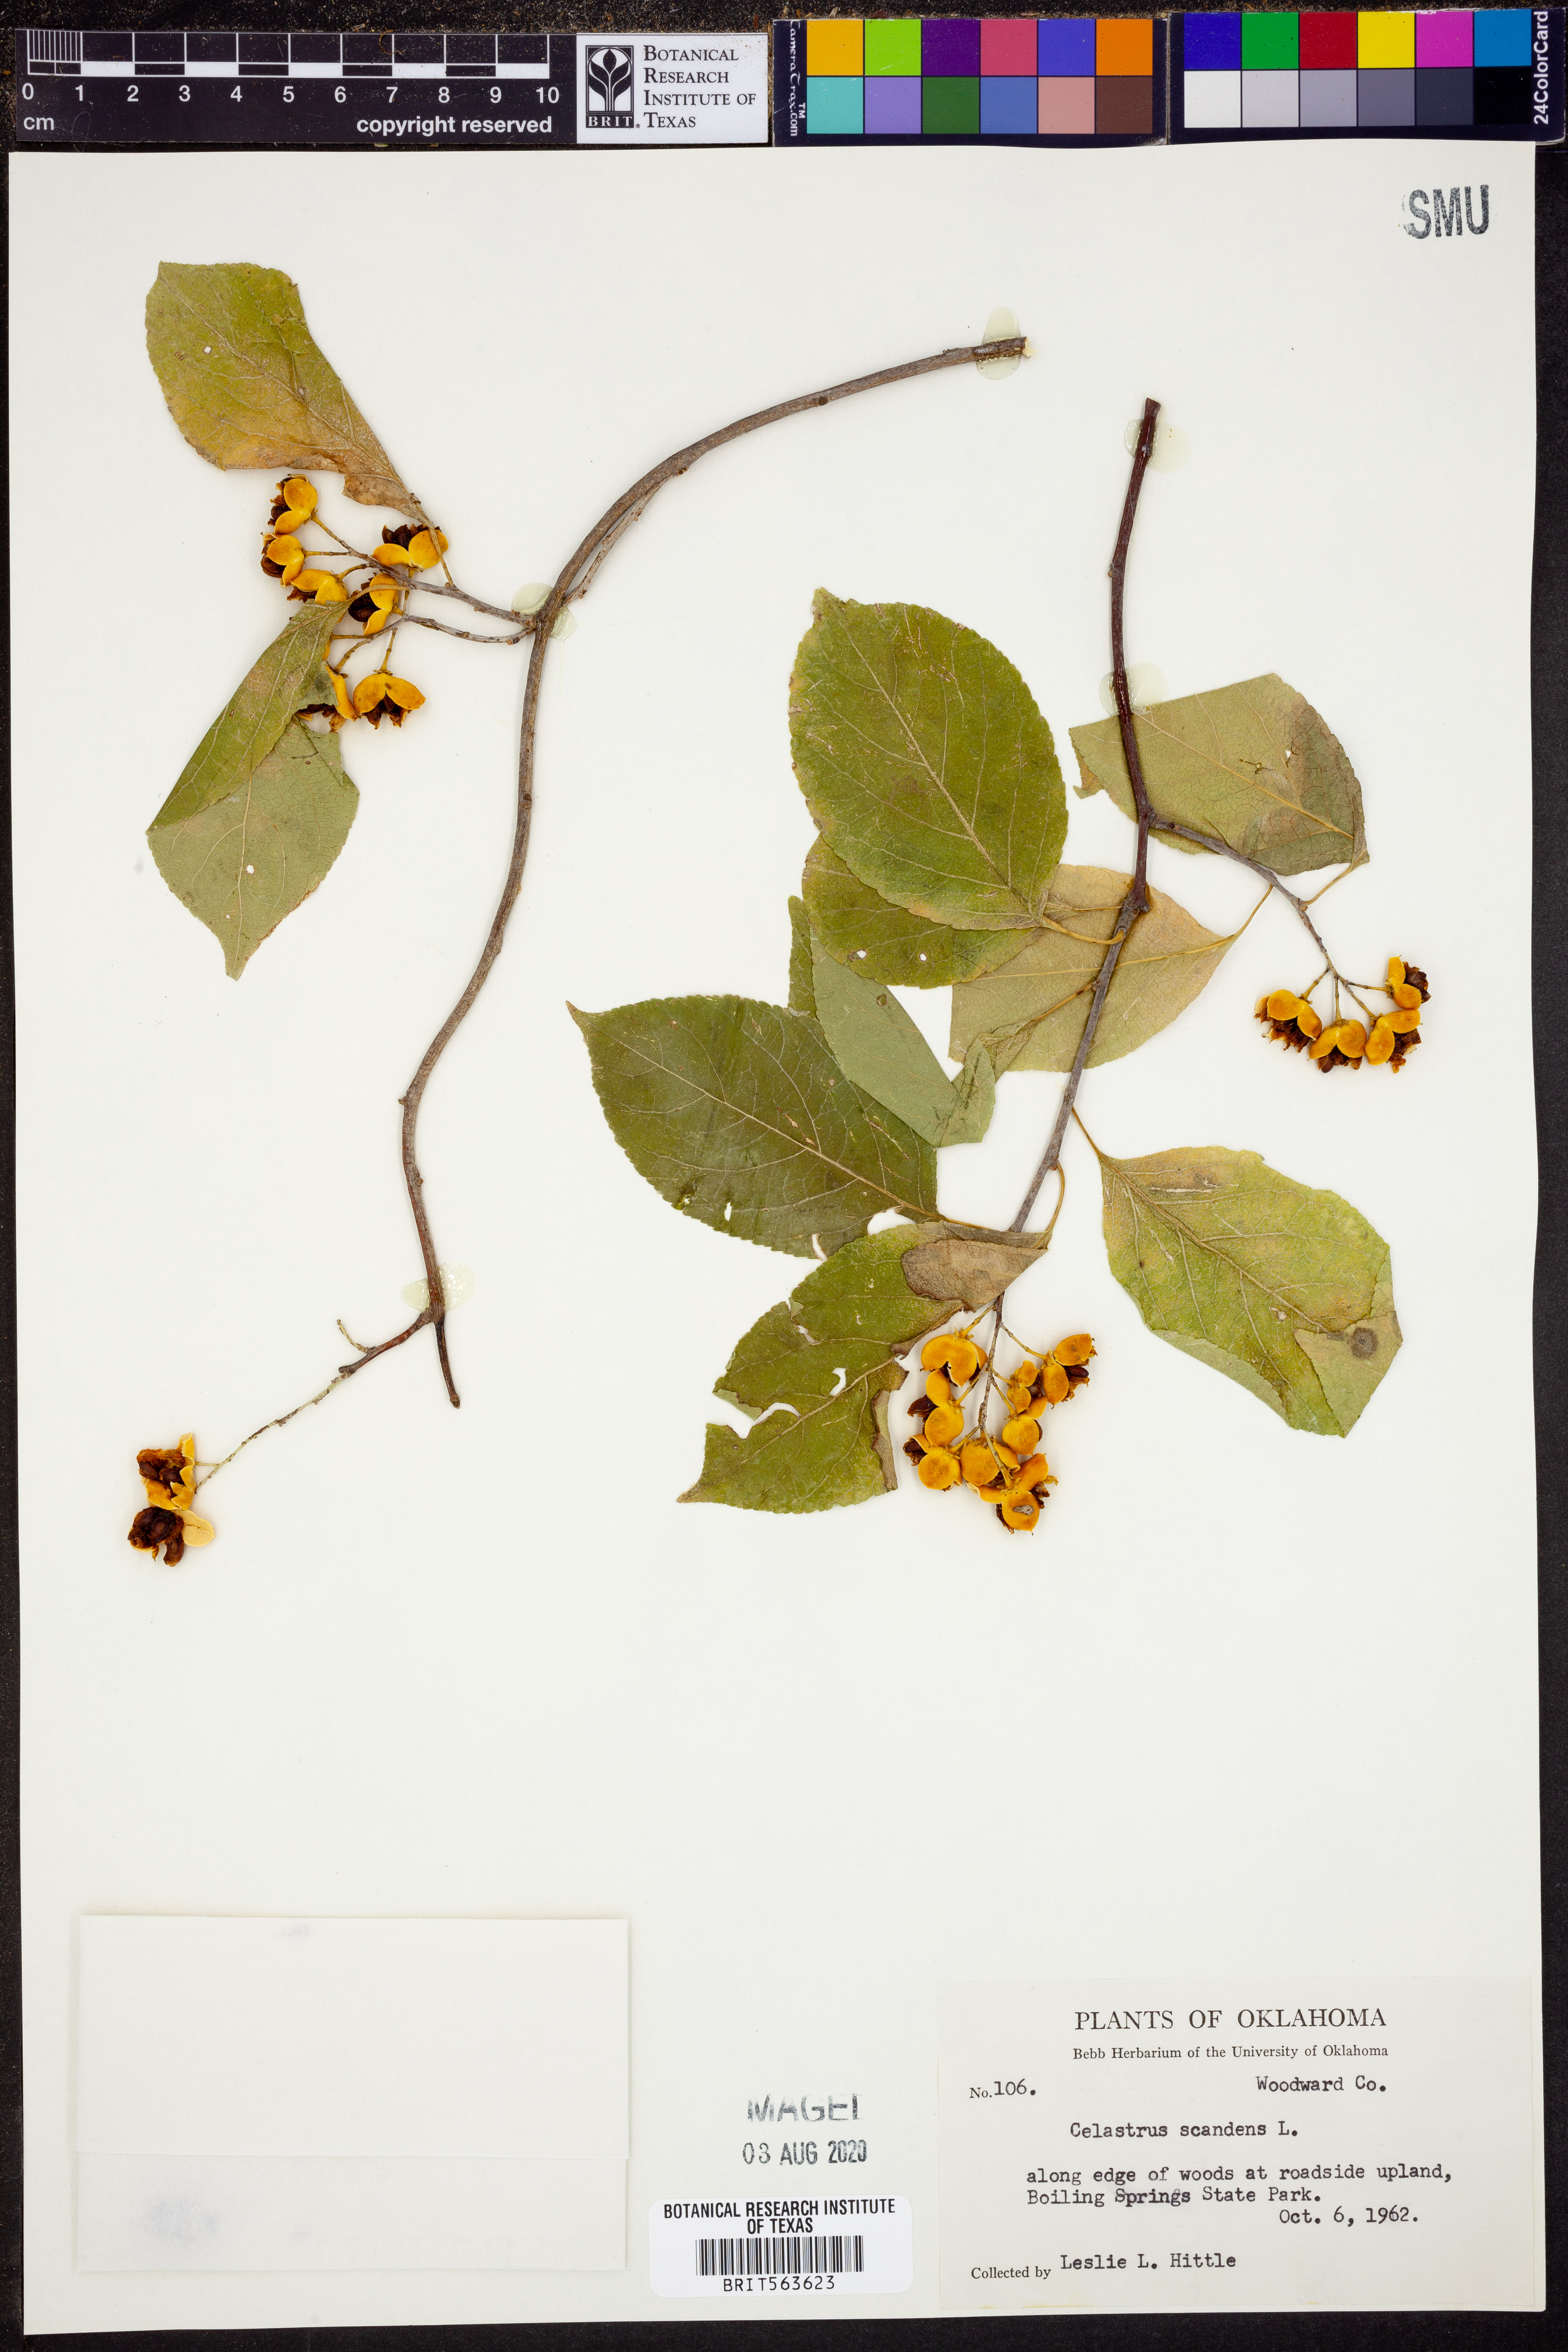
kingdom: Plantae
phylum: Tracheophyta
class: Magnoliopsida
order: Celastrales
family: Celastraceae
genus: Celastrus
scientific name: Celastrus scandens
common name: American bittersweet
